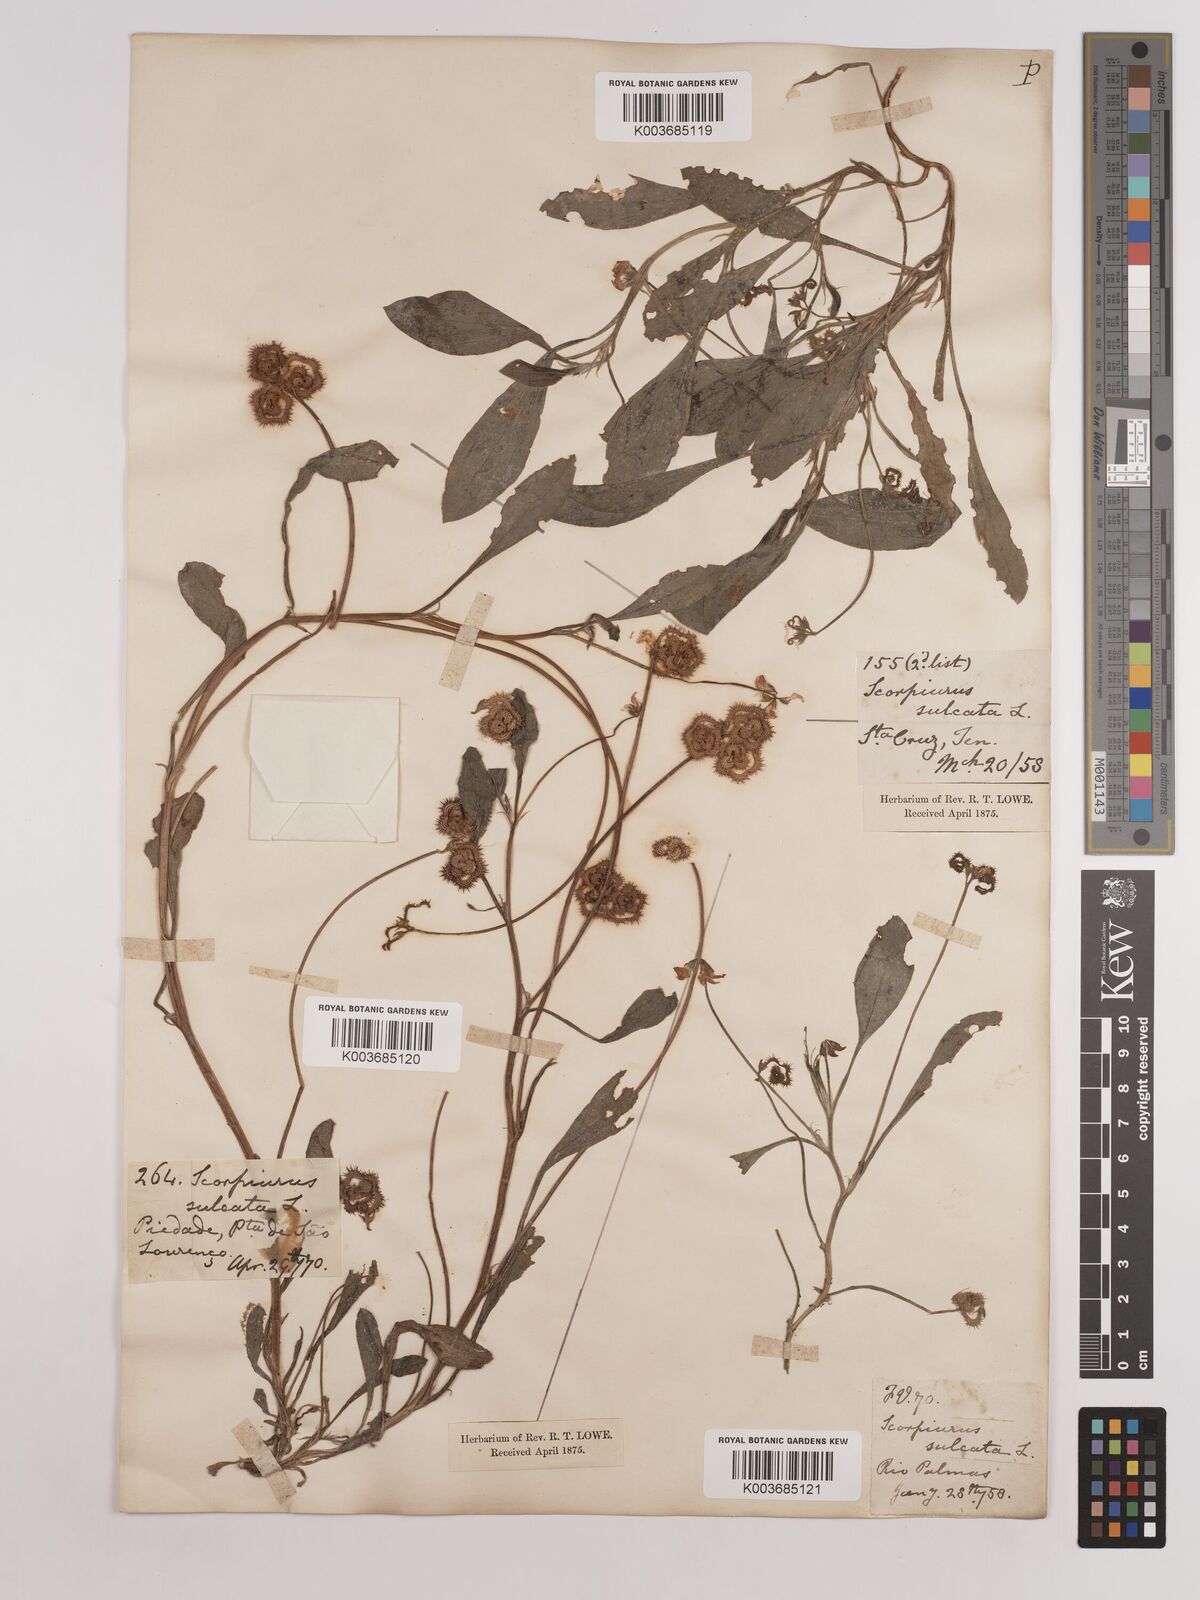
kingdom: Plantae
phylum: Tracheophyta
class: Magnoliopsida
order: Fabales
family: Fabaceae
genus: Scorpiurus
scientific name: Scorpiurus muricatus
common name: Caterpillar-plant
